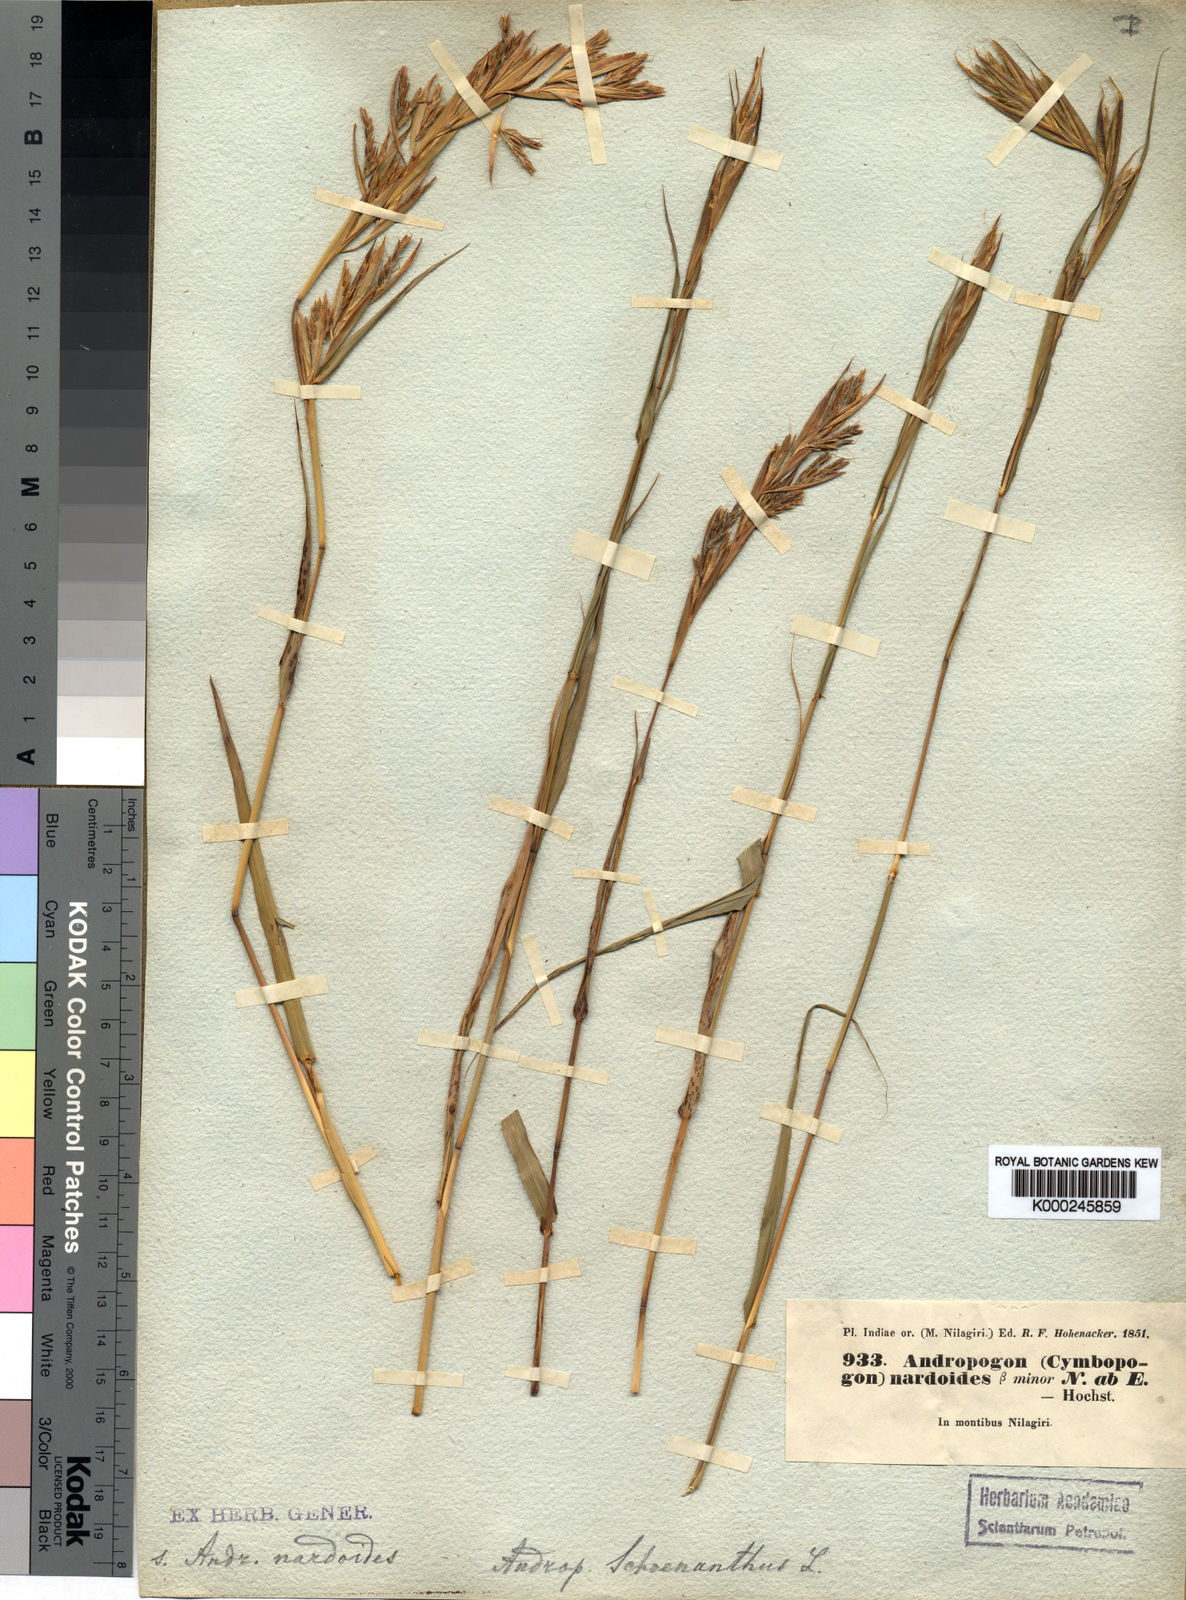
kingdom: Plantae
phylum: Tracheophyta
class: Liliopsida
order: Poales
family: Poaceae
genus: Cymbopogon
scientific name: Cymbopogon polyneuros
